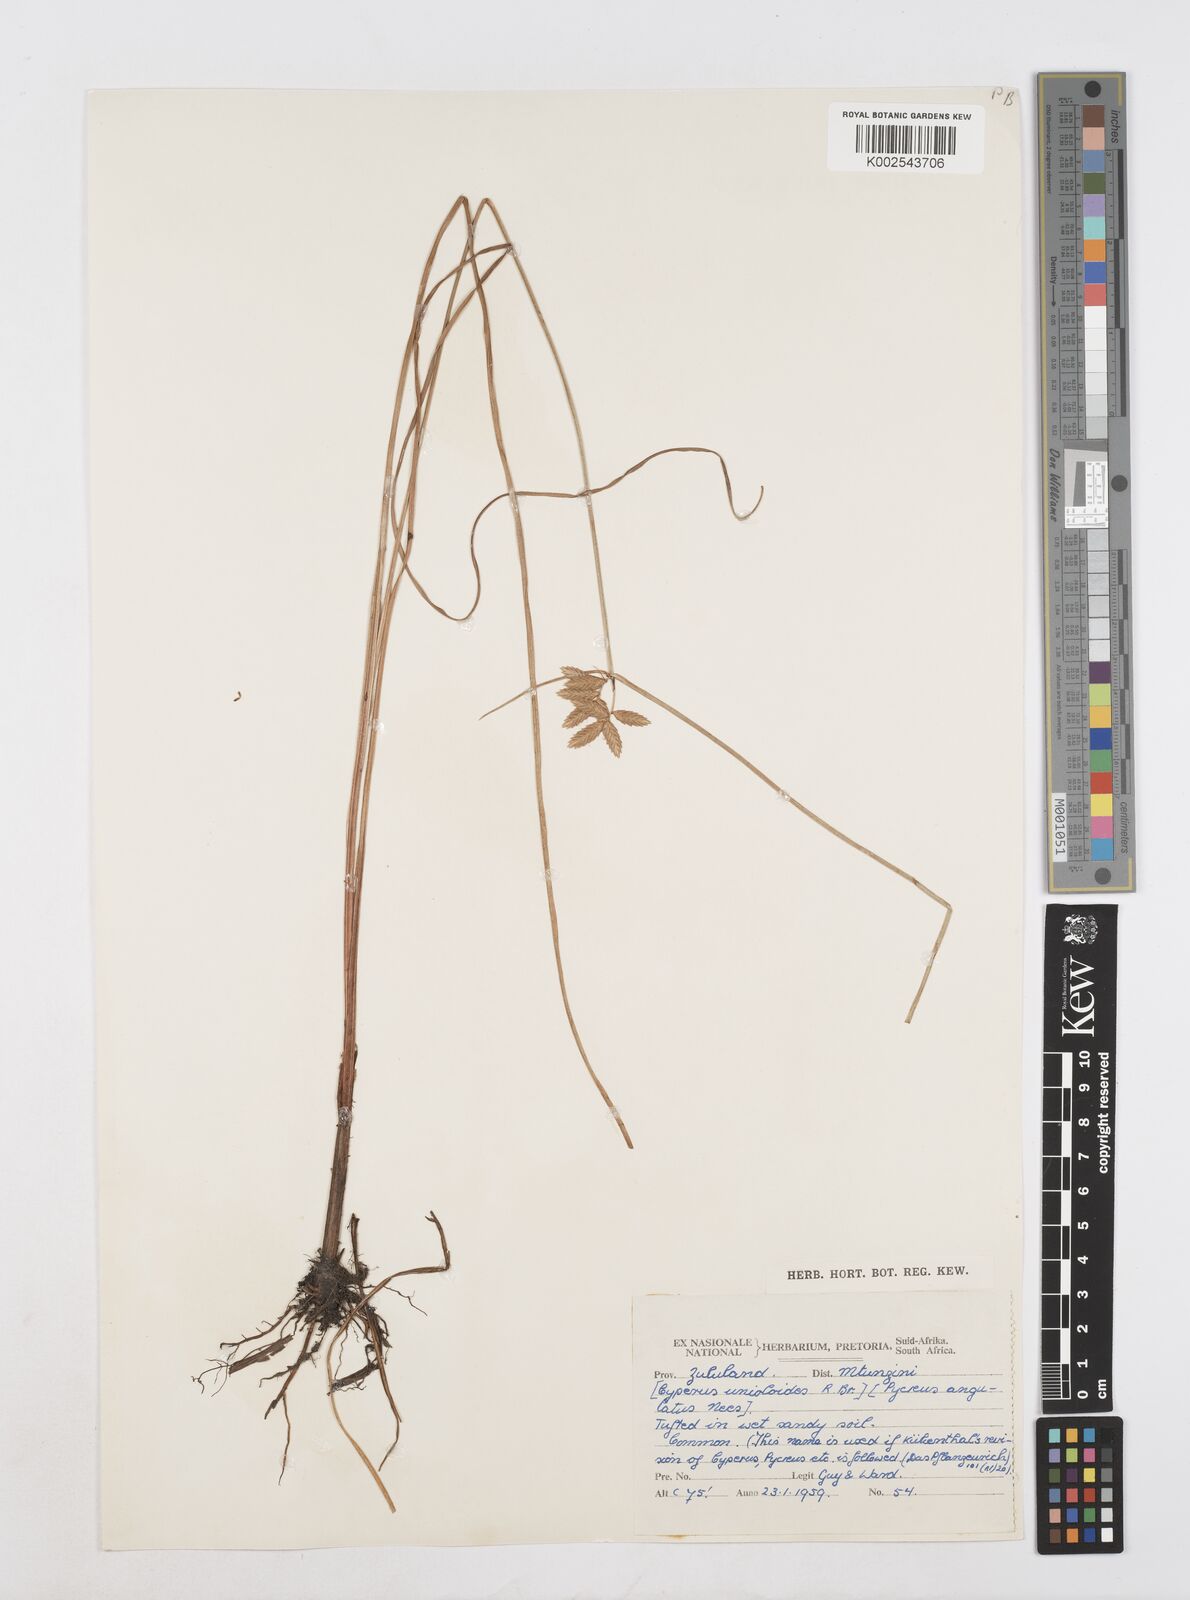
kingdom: Plantae
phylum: Tracheophyta
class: Liliopsida
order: Poales
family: Cyperaceae
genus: Cyperus
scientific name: Cyperus unioloides
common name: Uniola flatsedge
